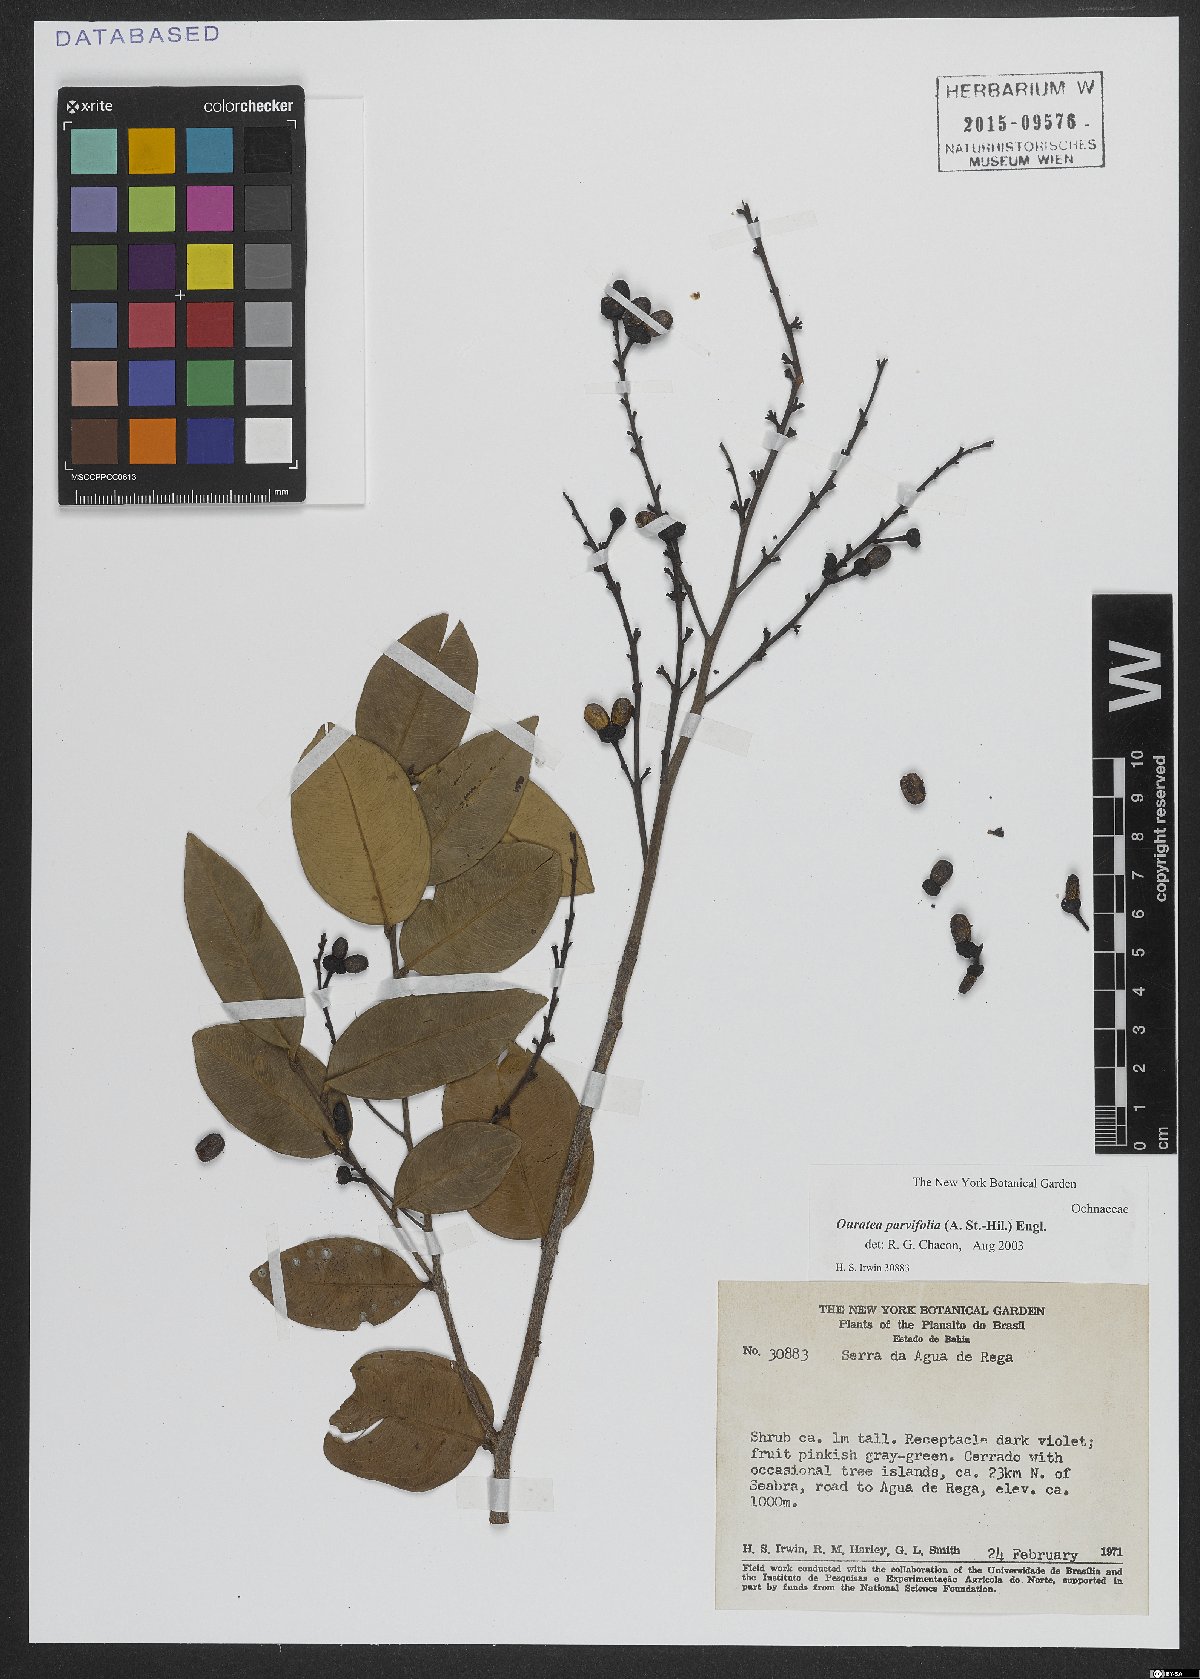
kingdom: Plantae
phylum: Tracheophyta
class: Magnoliopsida
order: Malpighiales
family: Ochnaceae
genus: Ouratea
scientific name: Ouratea parvifolia
